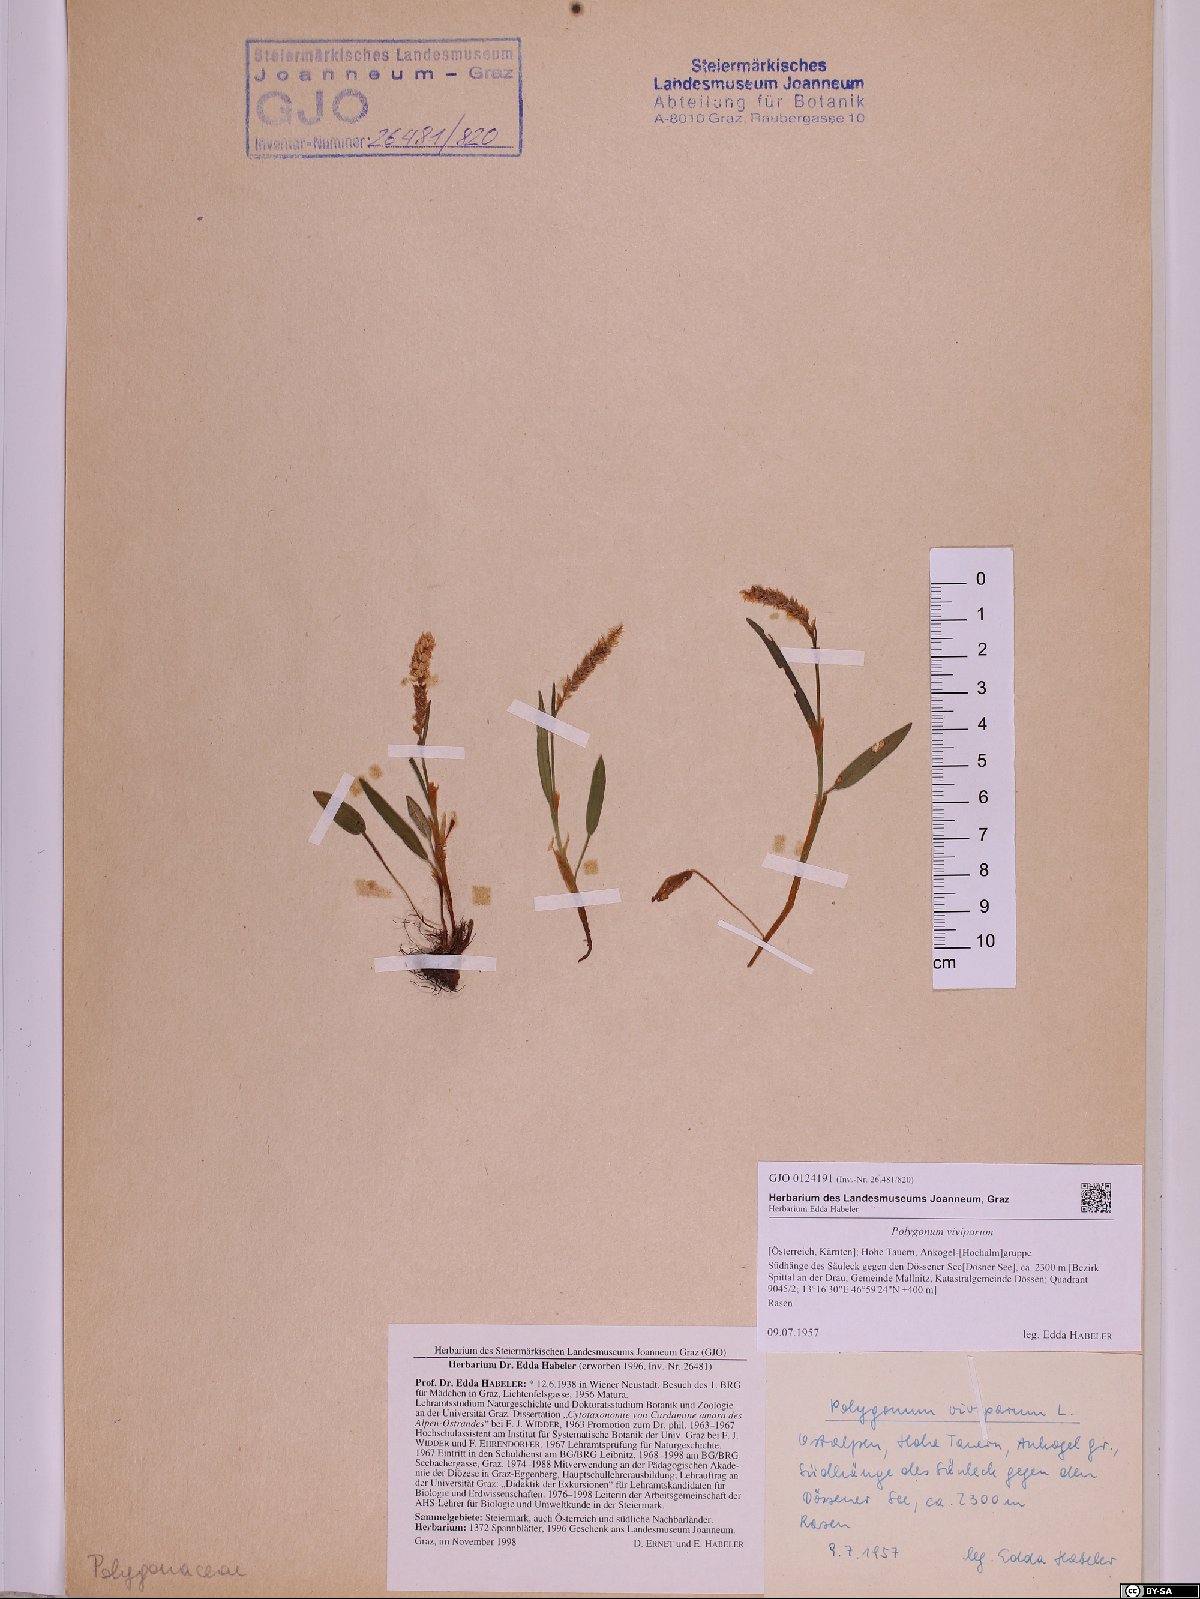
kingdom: Plantae
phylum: Tracheophyta
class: Magnoliopsida
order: Caryophyllales
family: Polygonaceae
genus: Bistorta
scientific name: Bistorta vivipara
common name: Alpine bistort
